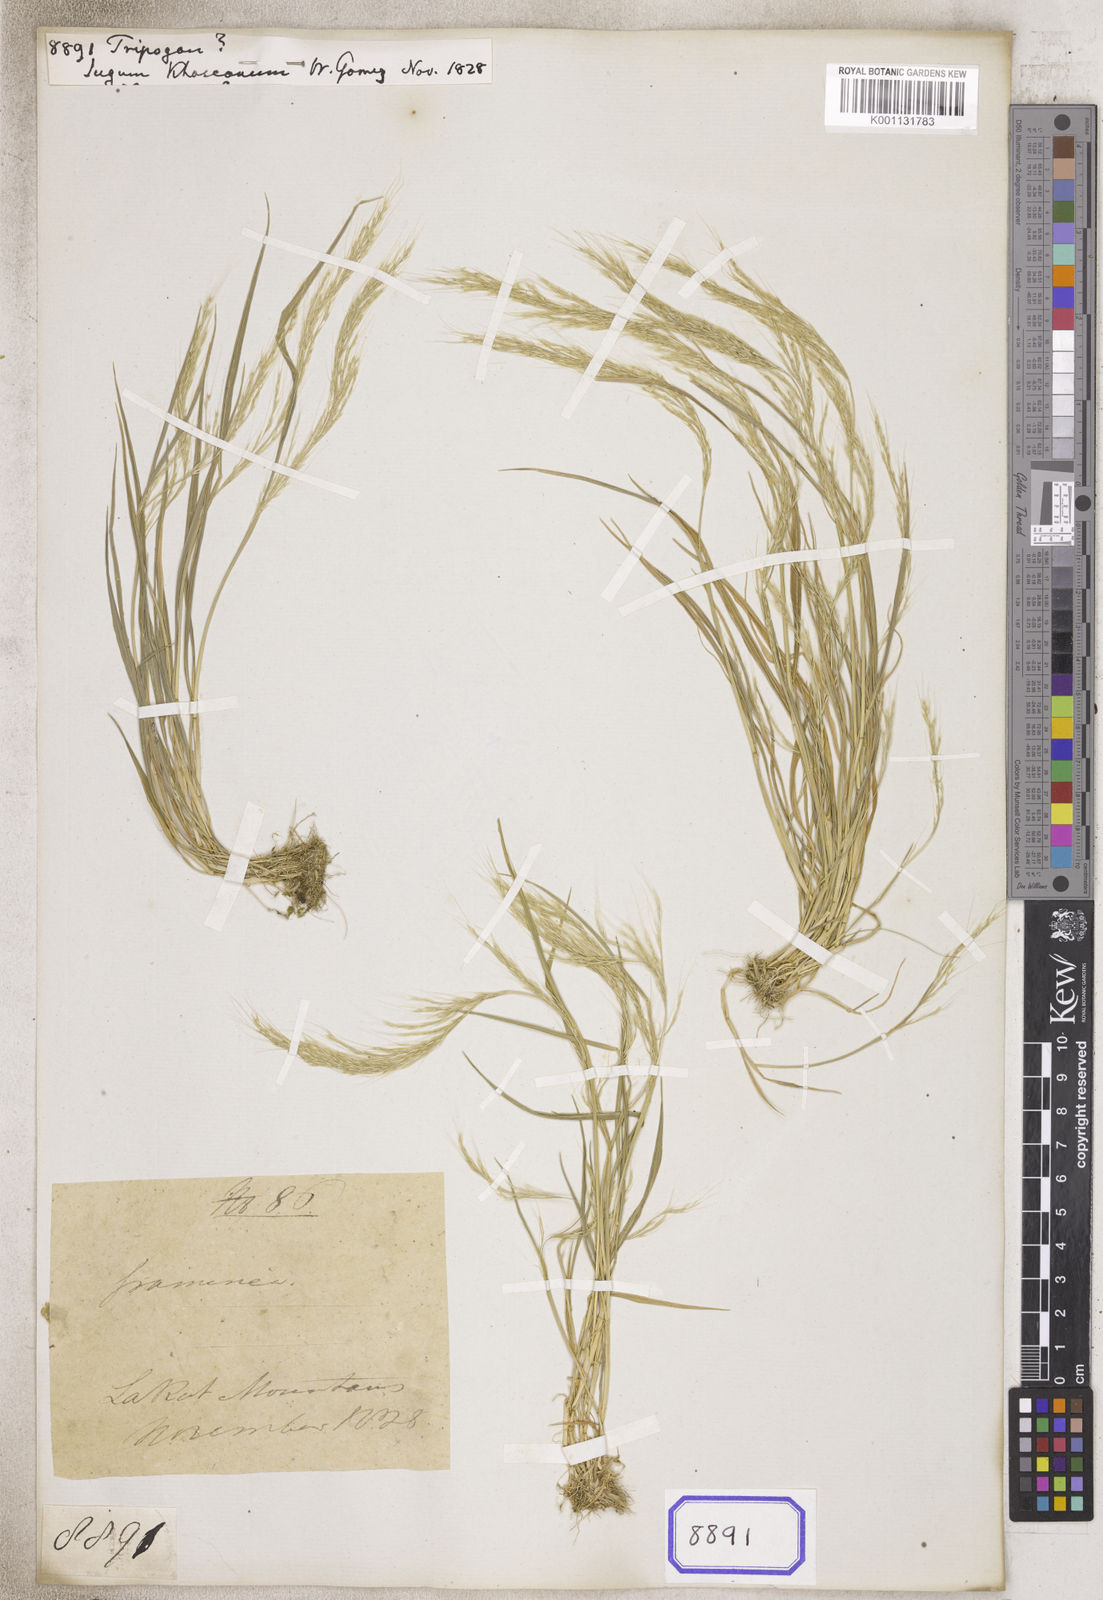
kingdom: Plantae
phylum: Tracheophyta
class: Liliopsida
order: Poales
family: Poaceae
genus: Tripogon
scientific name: Tripogon
